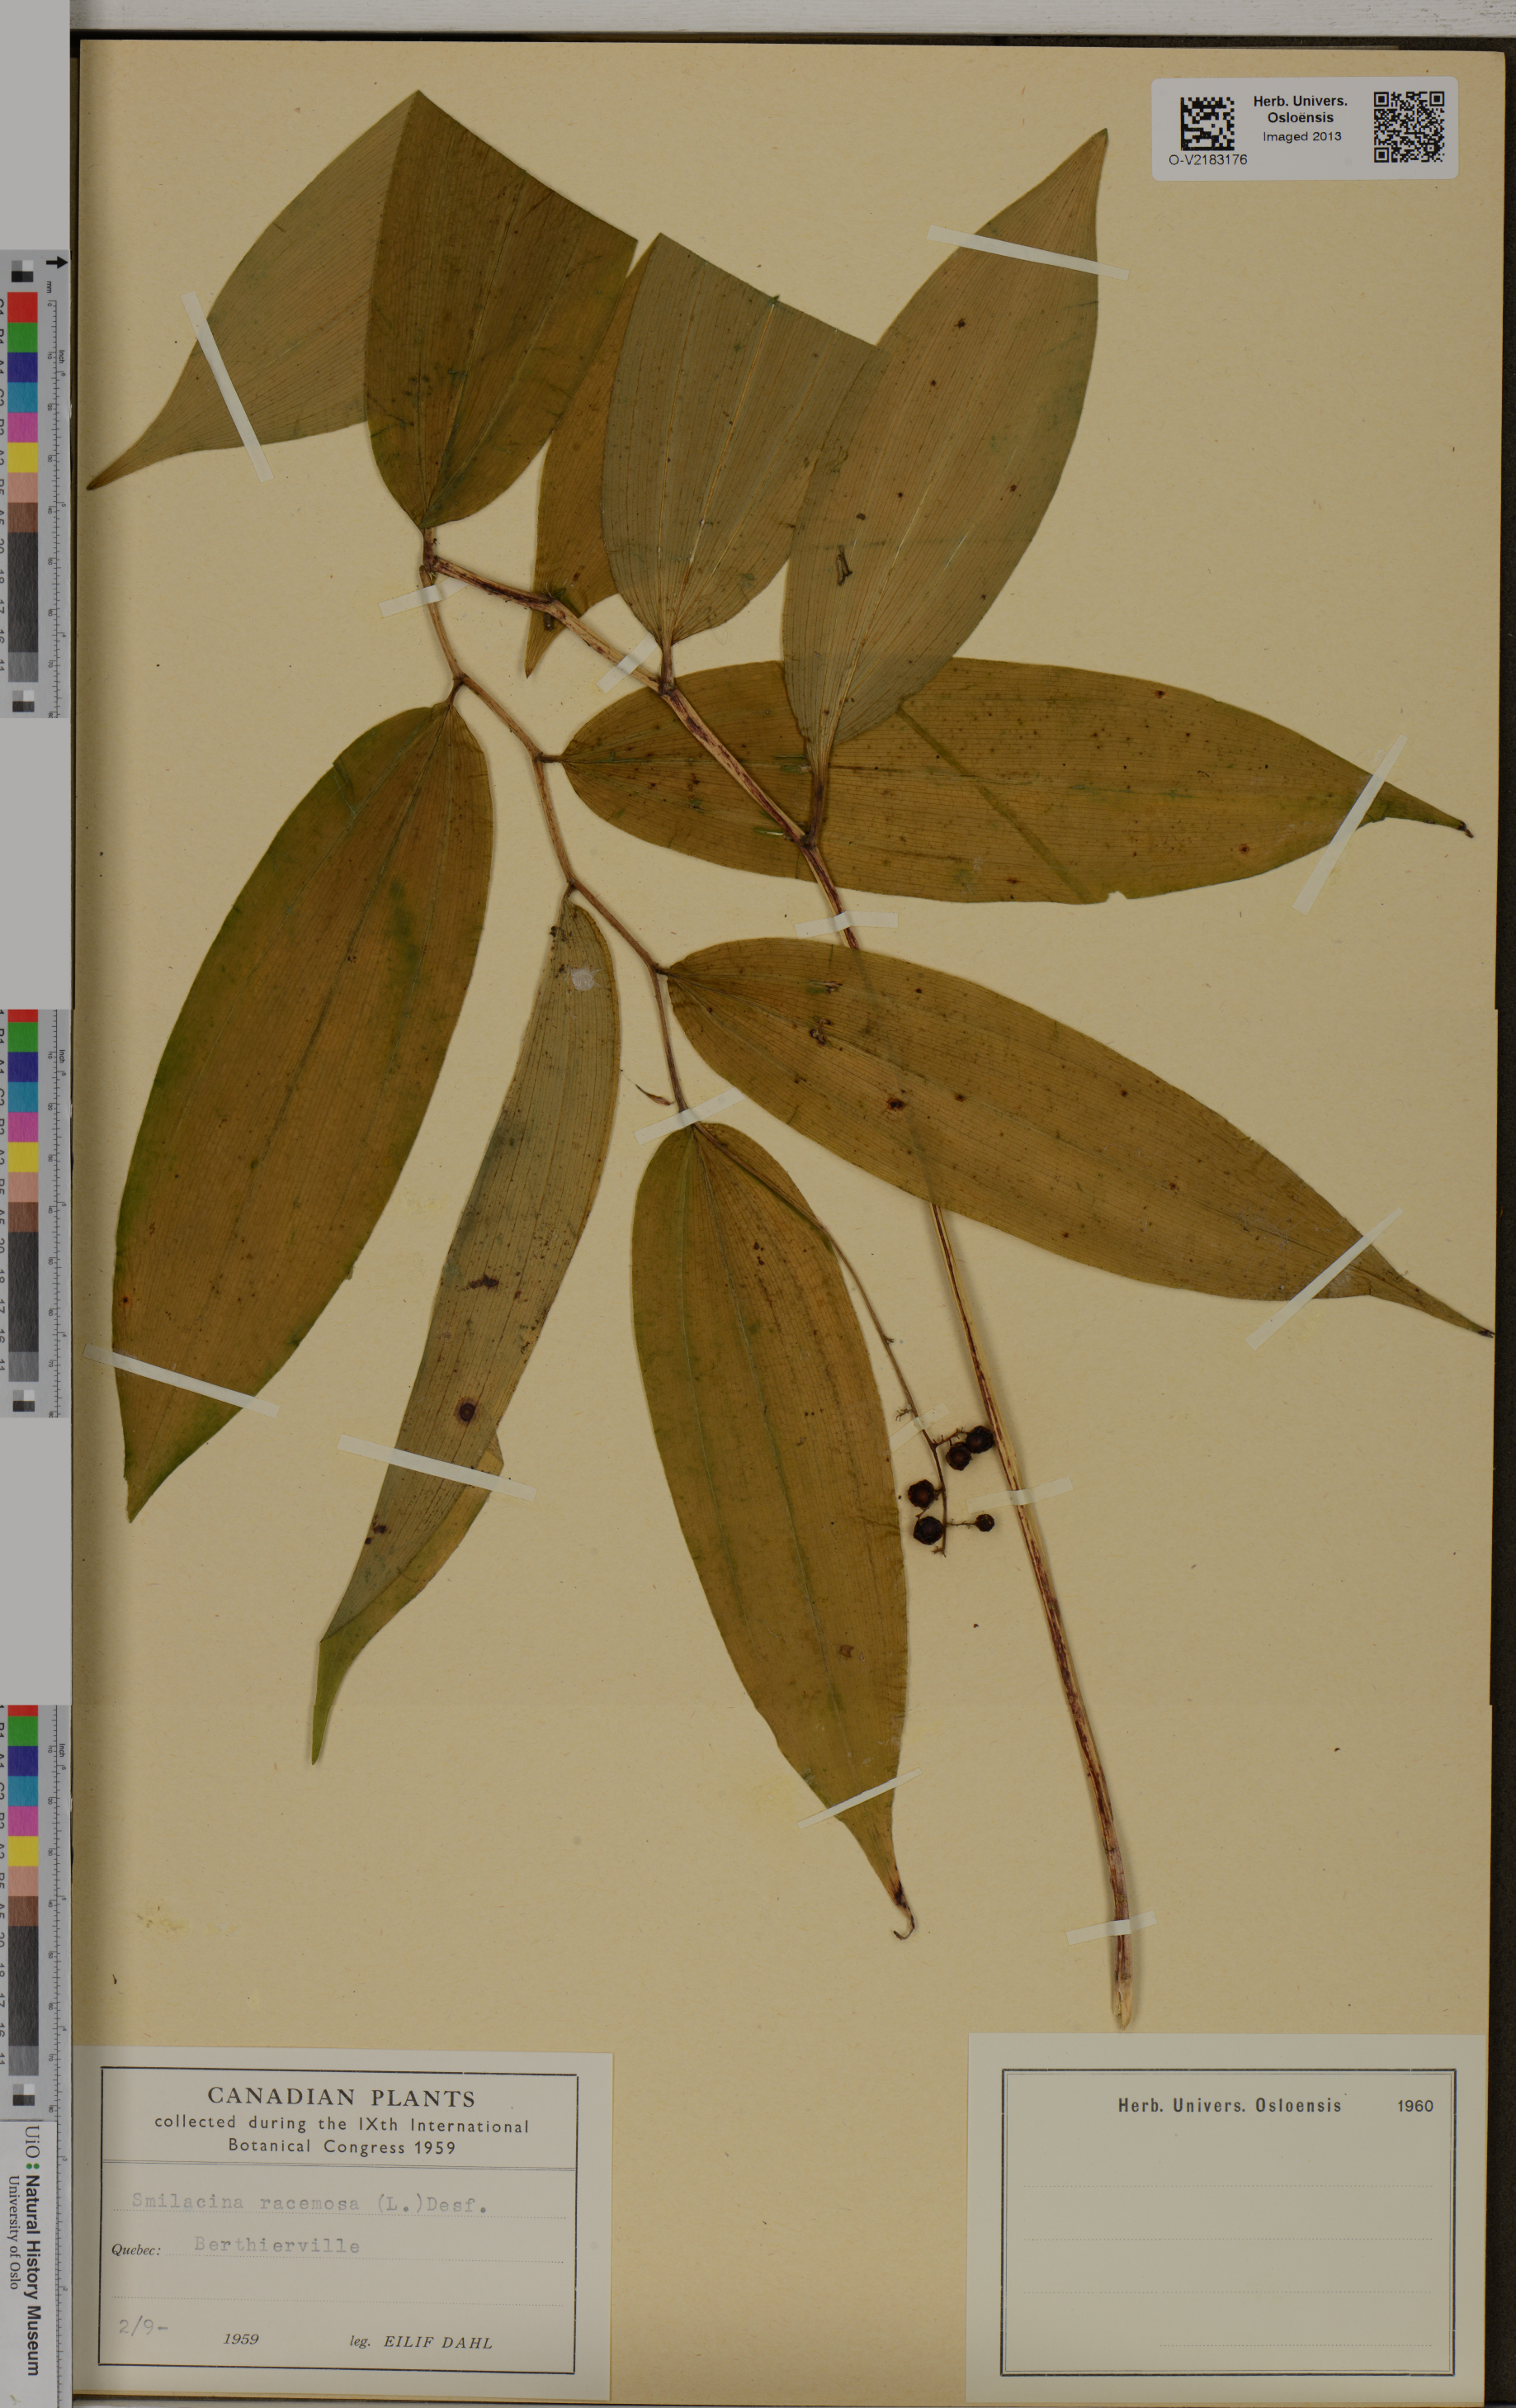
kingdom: Plantae
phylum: Tracheophyta
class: Liliopsida
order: Asparagales
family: Asparagaceae
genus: Maianthemum
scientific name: Maianthemum racemosum
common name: False spikenard
